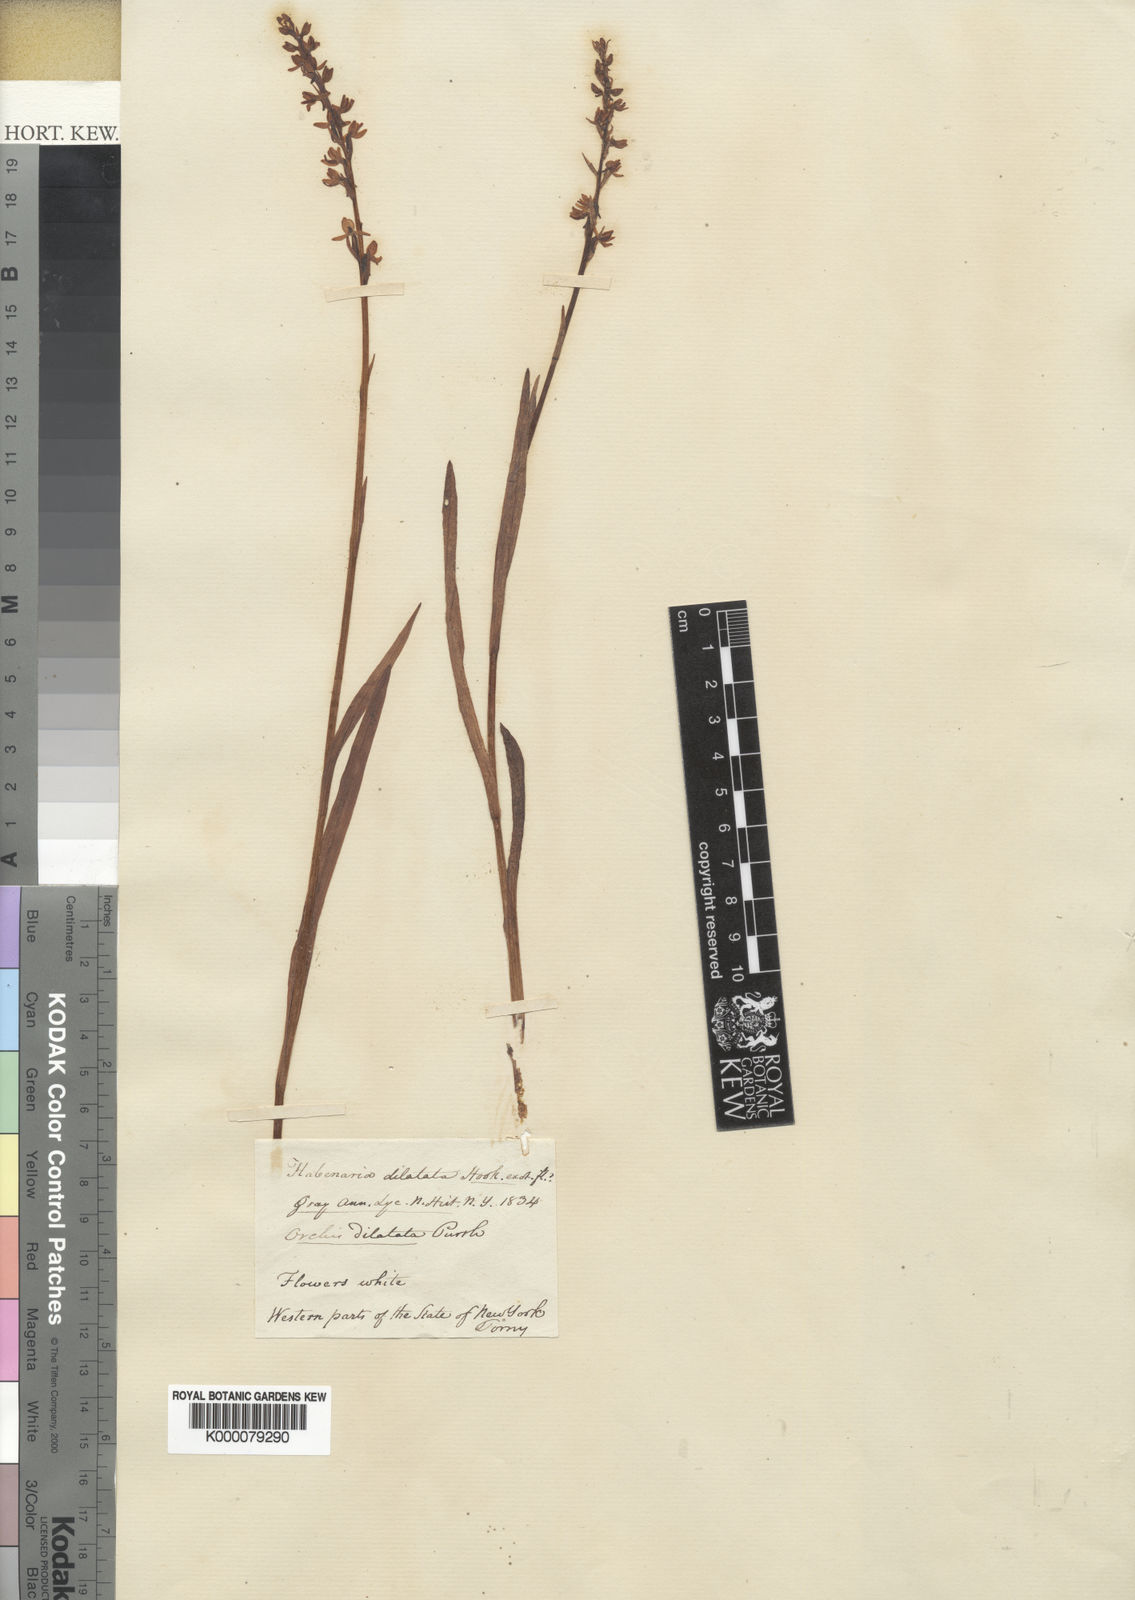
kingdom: Plantae
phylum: Tracheophyta
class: Liliopsida
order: Asparagales
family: Orchidaceae
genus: Platanthera
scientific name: Platanthera dilatata
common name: Bog candles
